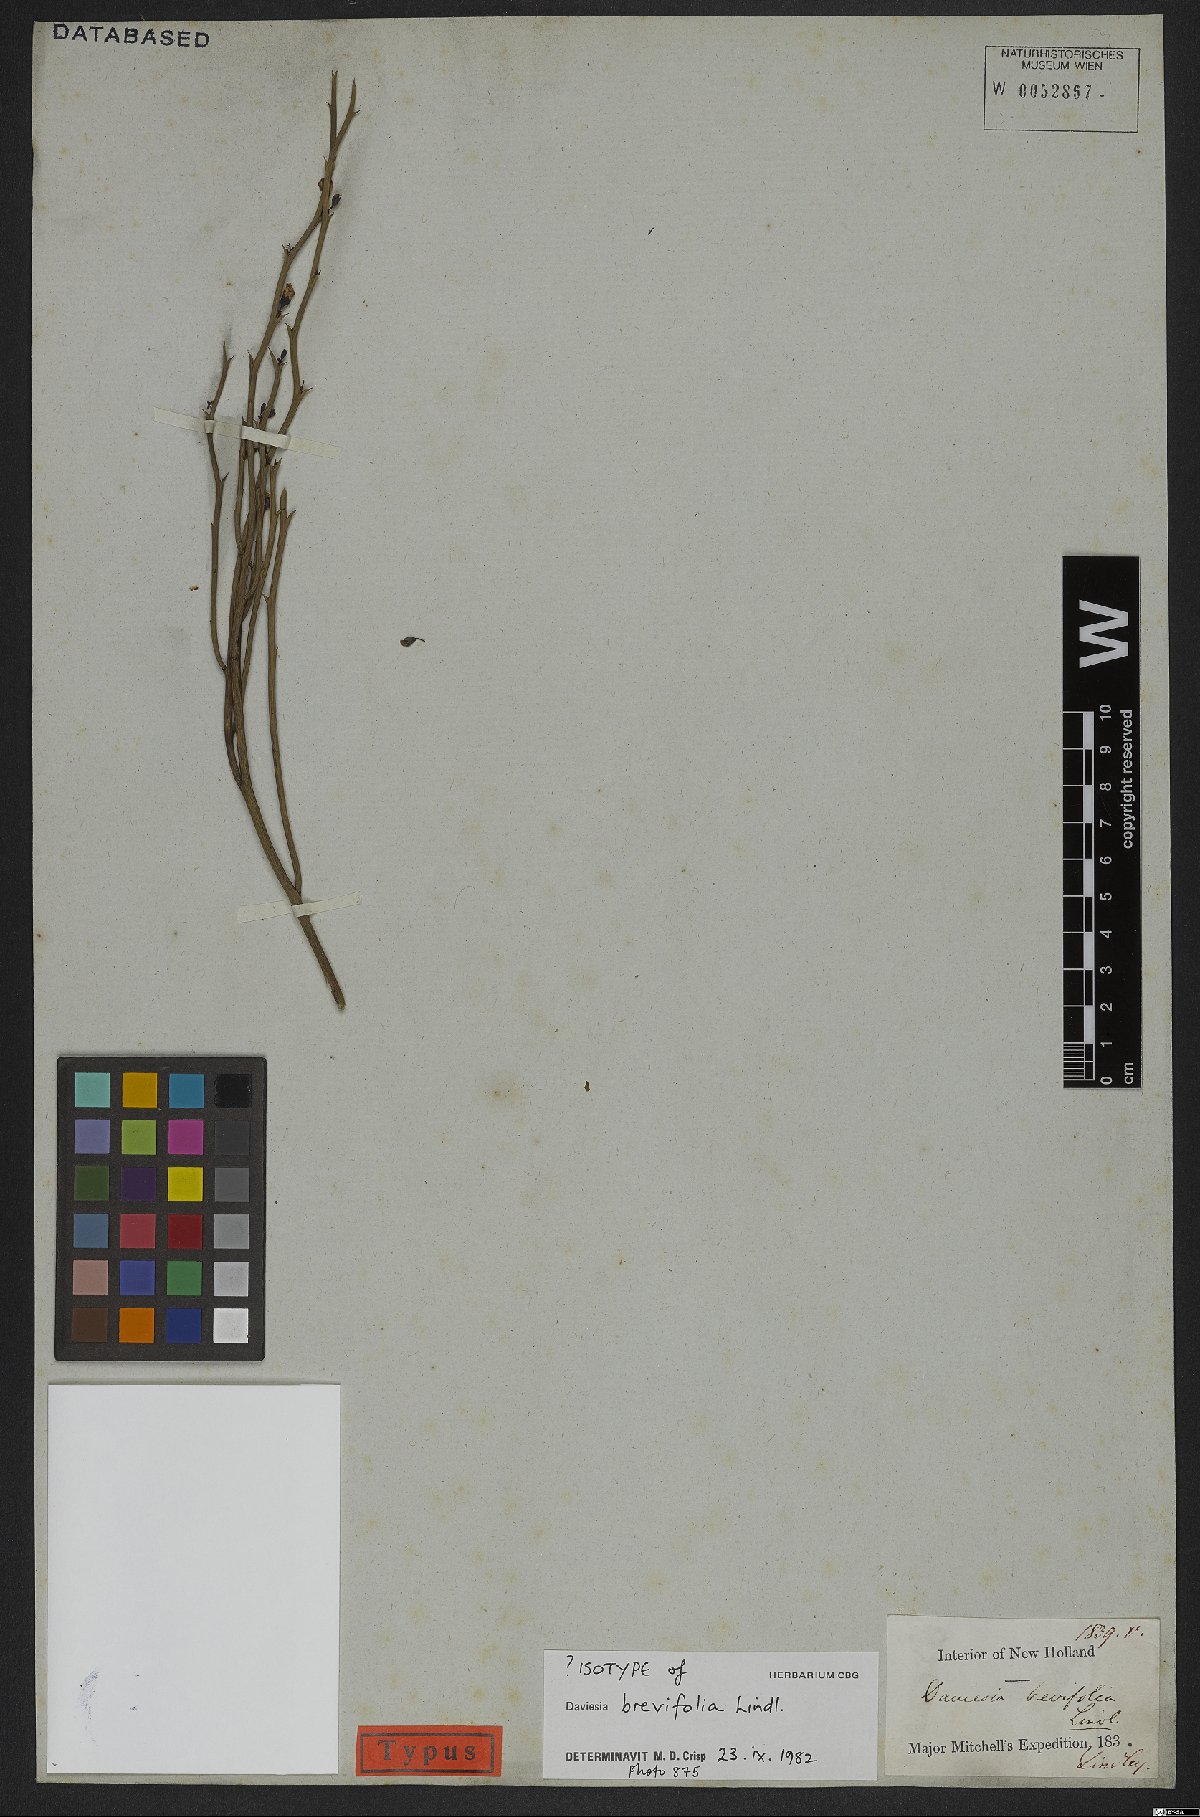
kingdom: Plantae
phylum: Tracheophyta
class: Magnoliopsida
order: Fabales
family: Fabaceae
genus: Daviesia
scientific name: Daviesia brevifolia
